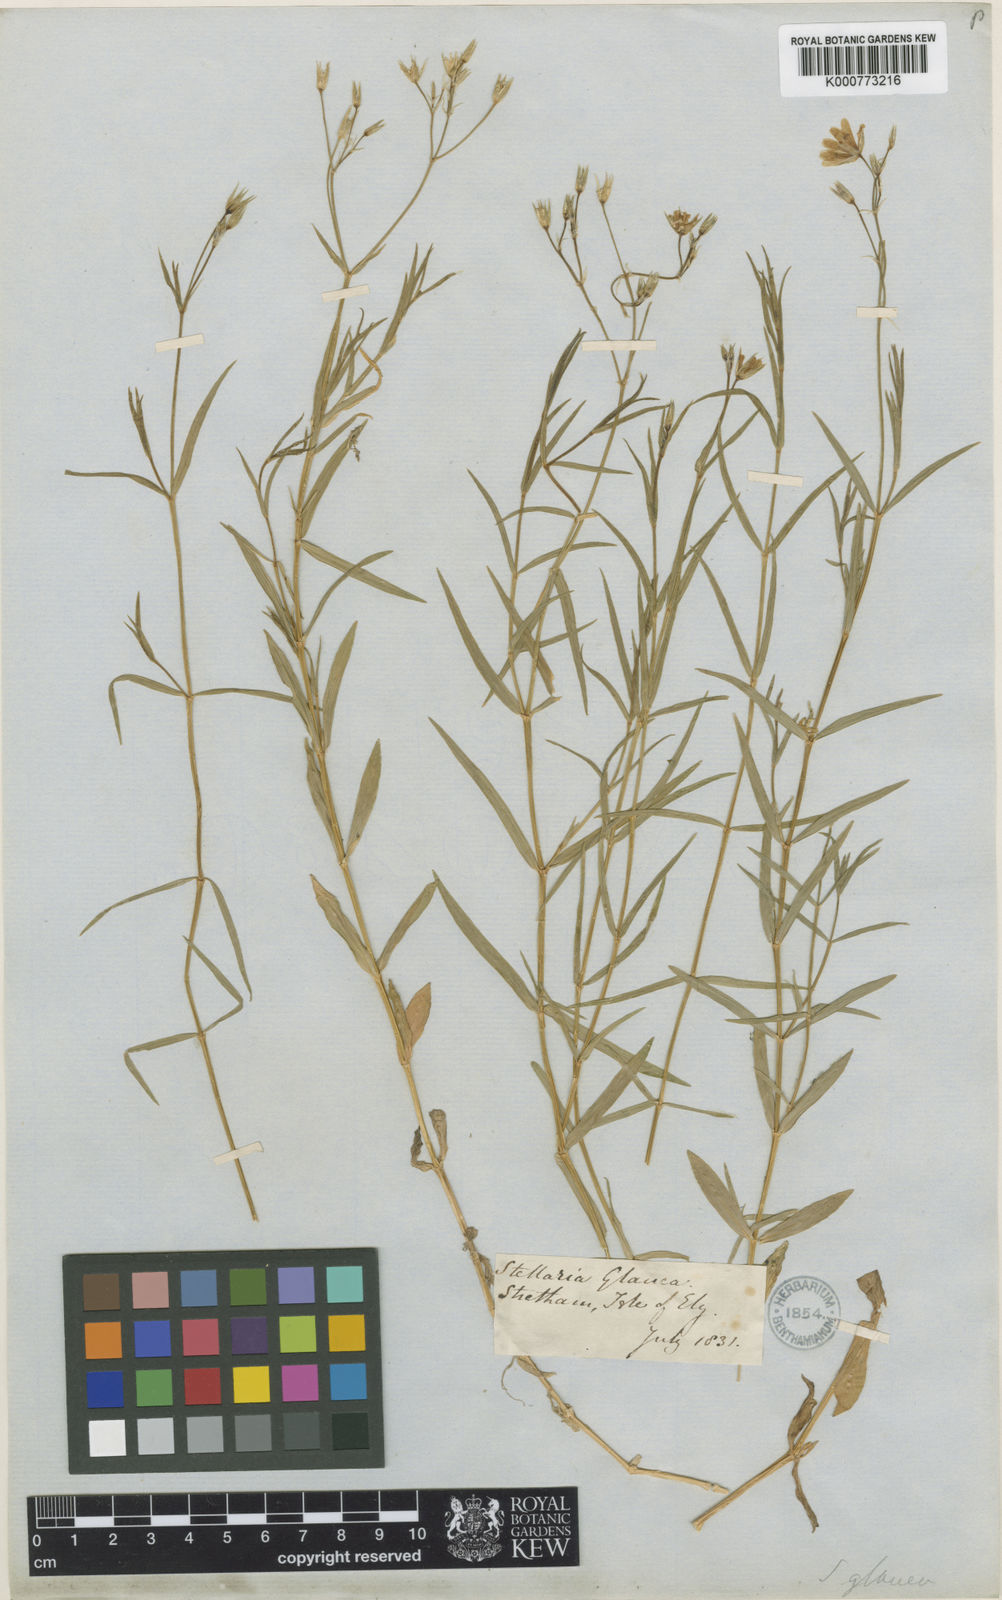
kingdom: Plantae
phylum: Tracheophyta
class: Magnoliopsida
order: Caryophyllales
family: Caryophyllaceae
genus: Stellaria
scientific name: Stellaria
